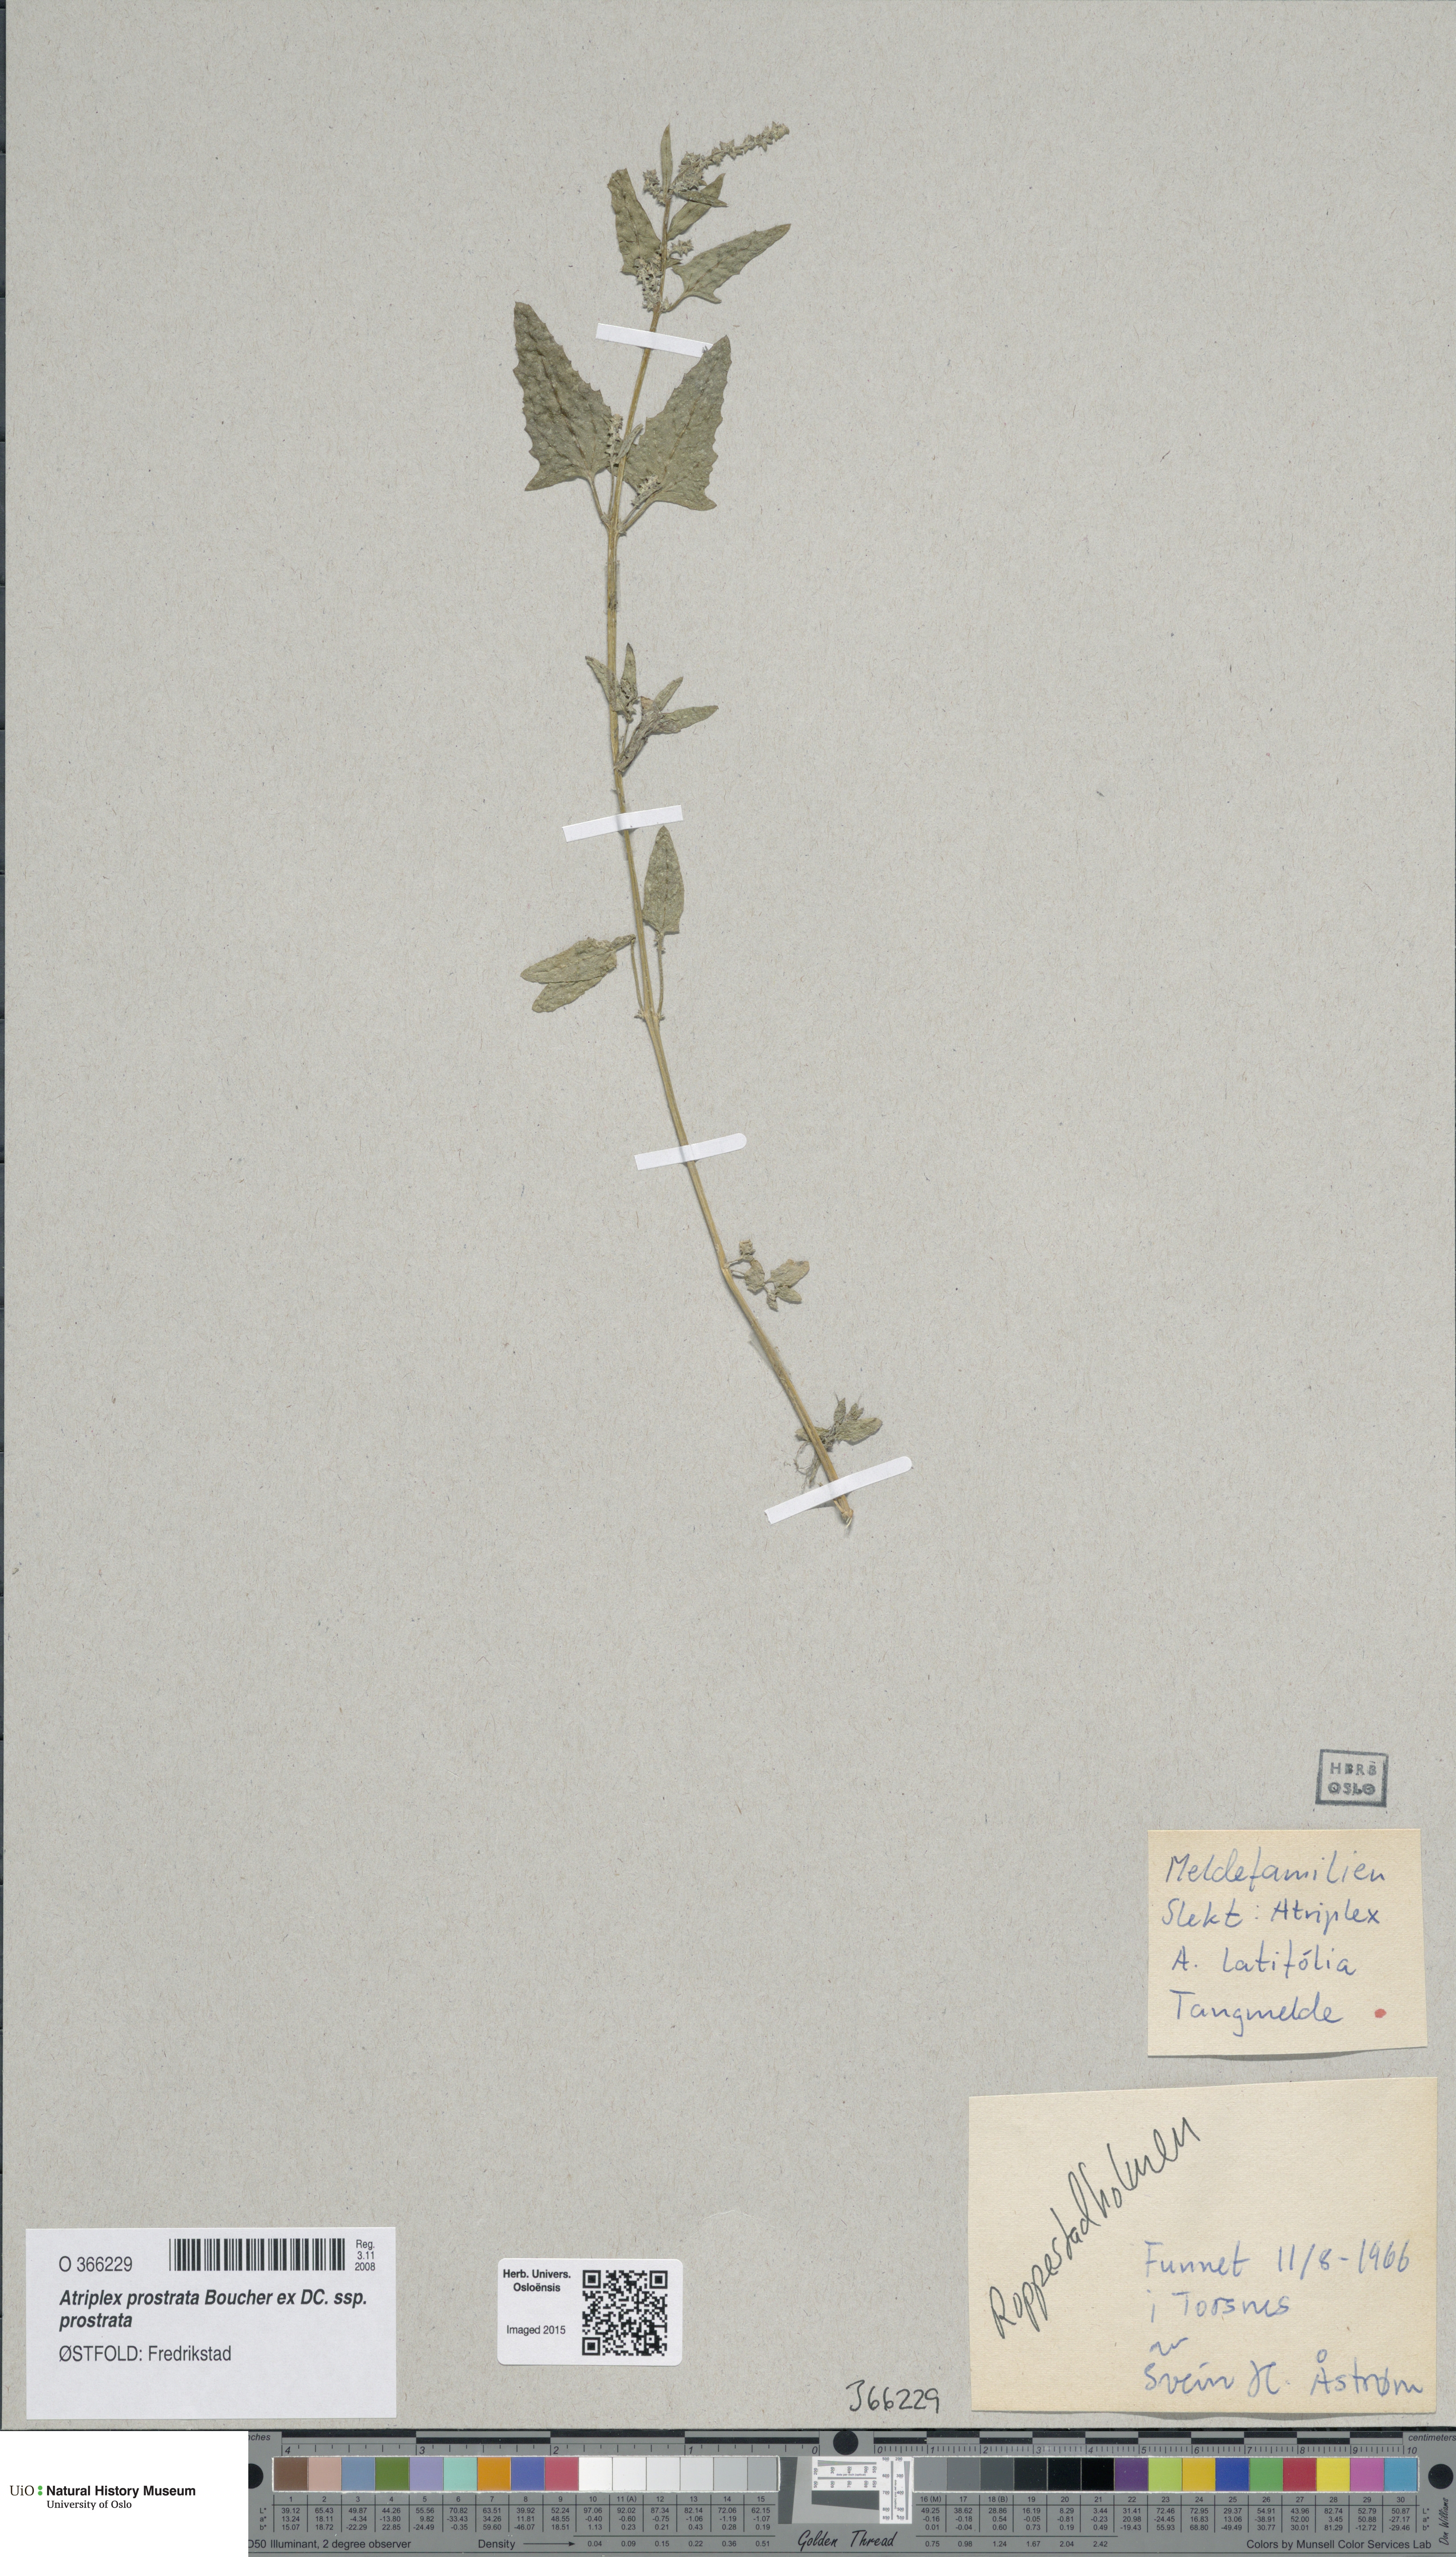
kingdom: Plantae
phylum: Tracheophyta
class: Magnoliopsida
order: Caryophyllales
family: Amaranthaceae
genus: Atriplex
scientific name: Atriplex prostrata
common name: Spear-leaved orache
